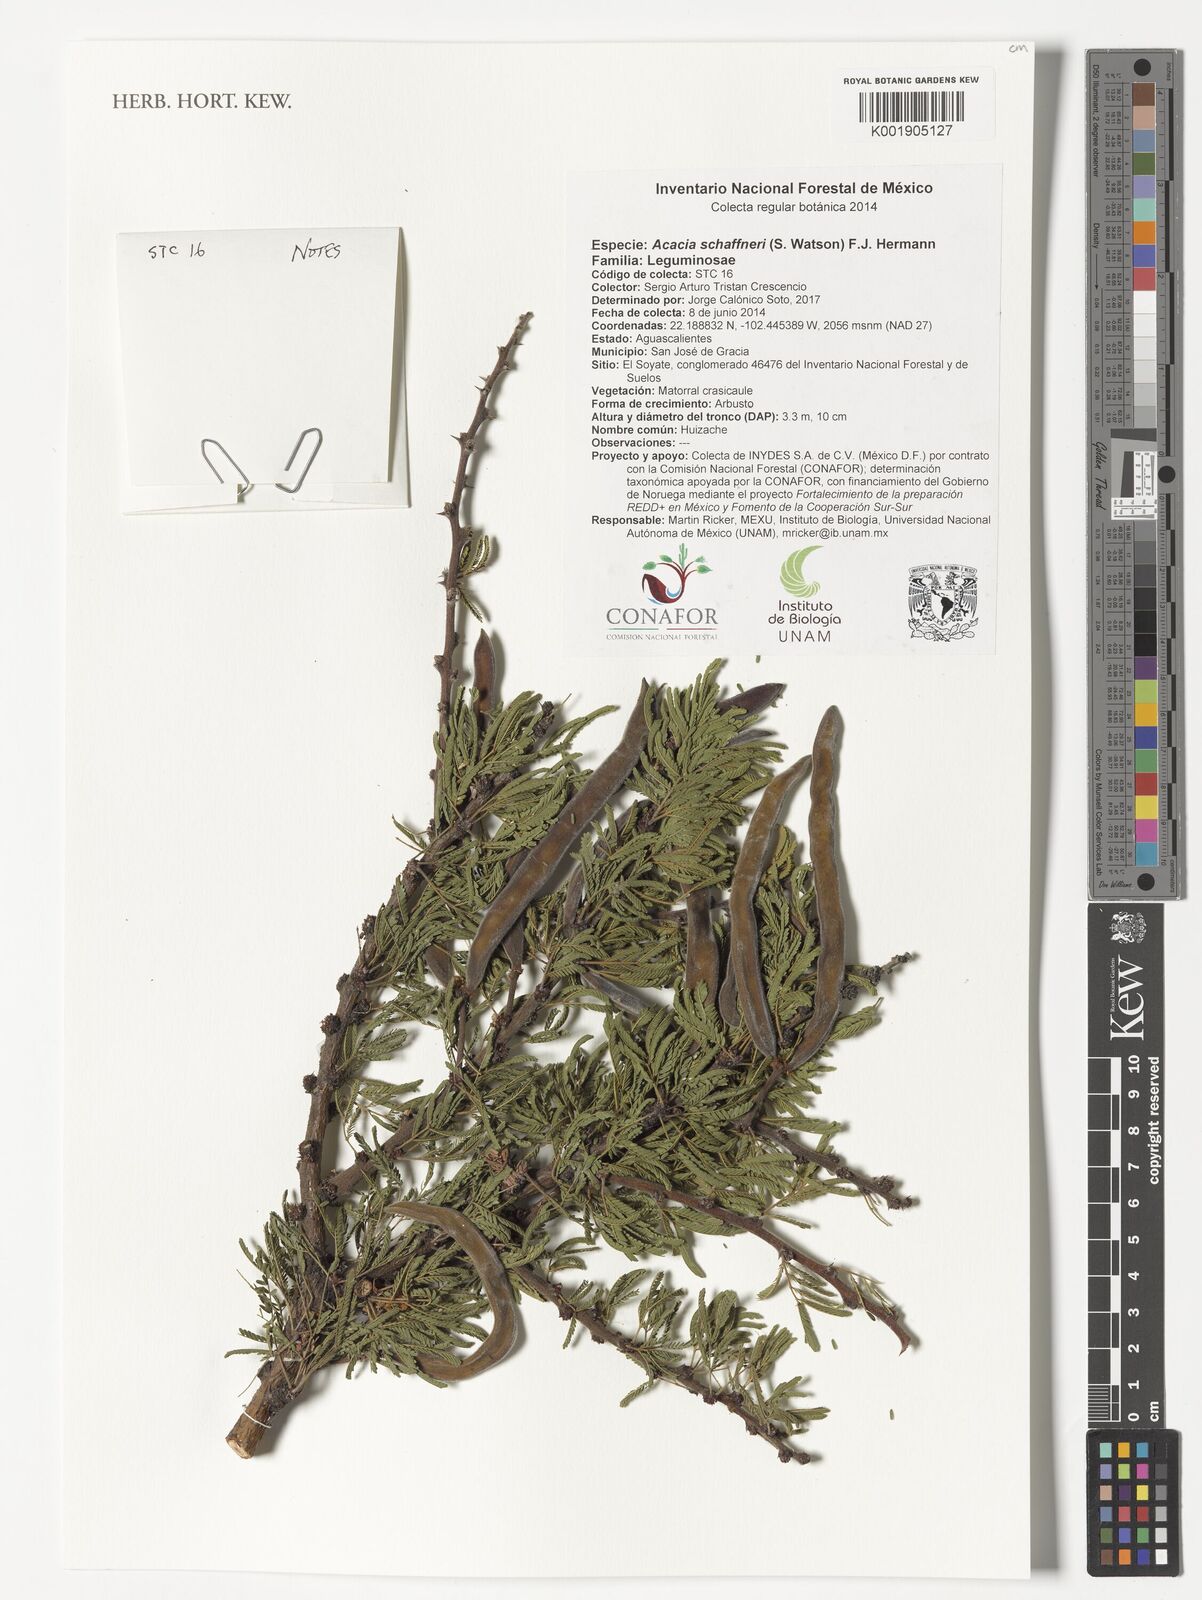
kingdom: Plantae
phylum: Tracheophyta
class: Magnoliopsida
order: Fabales
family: Fabaceae
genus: Vachellia
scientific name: Vachellia schaffneri
